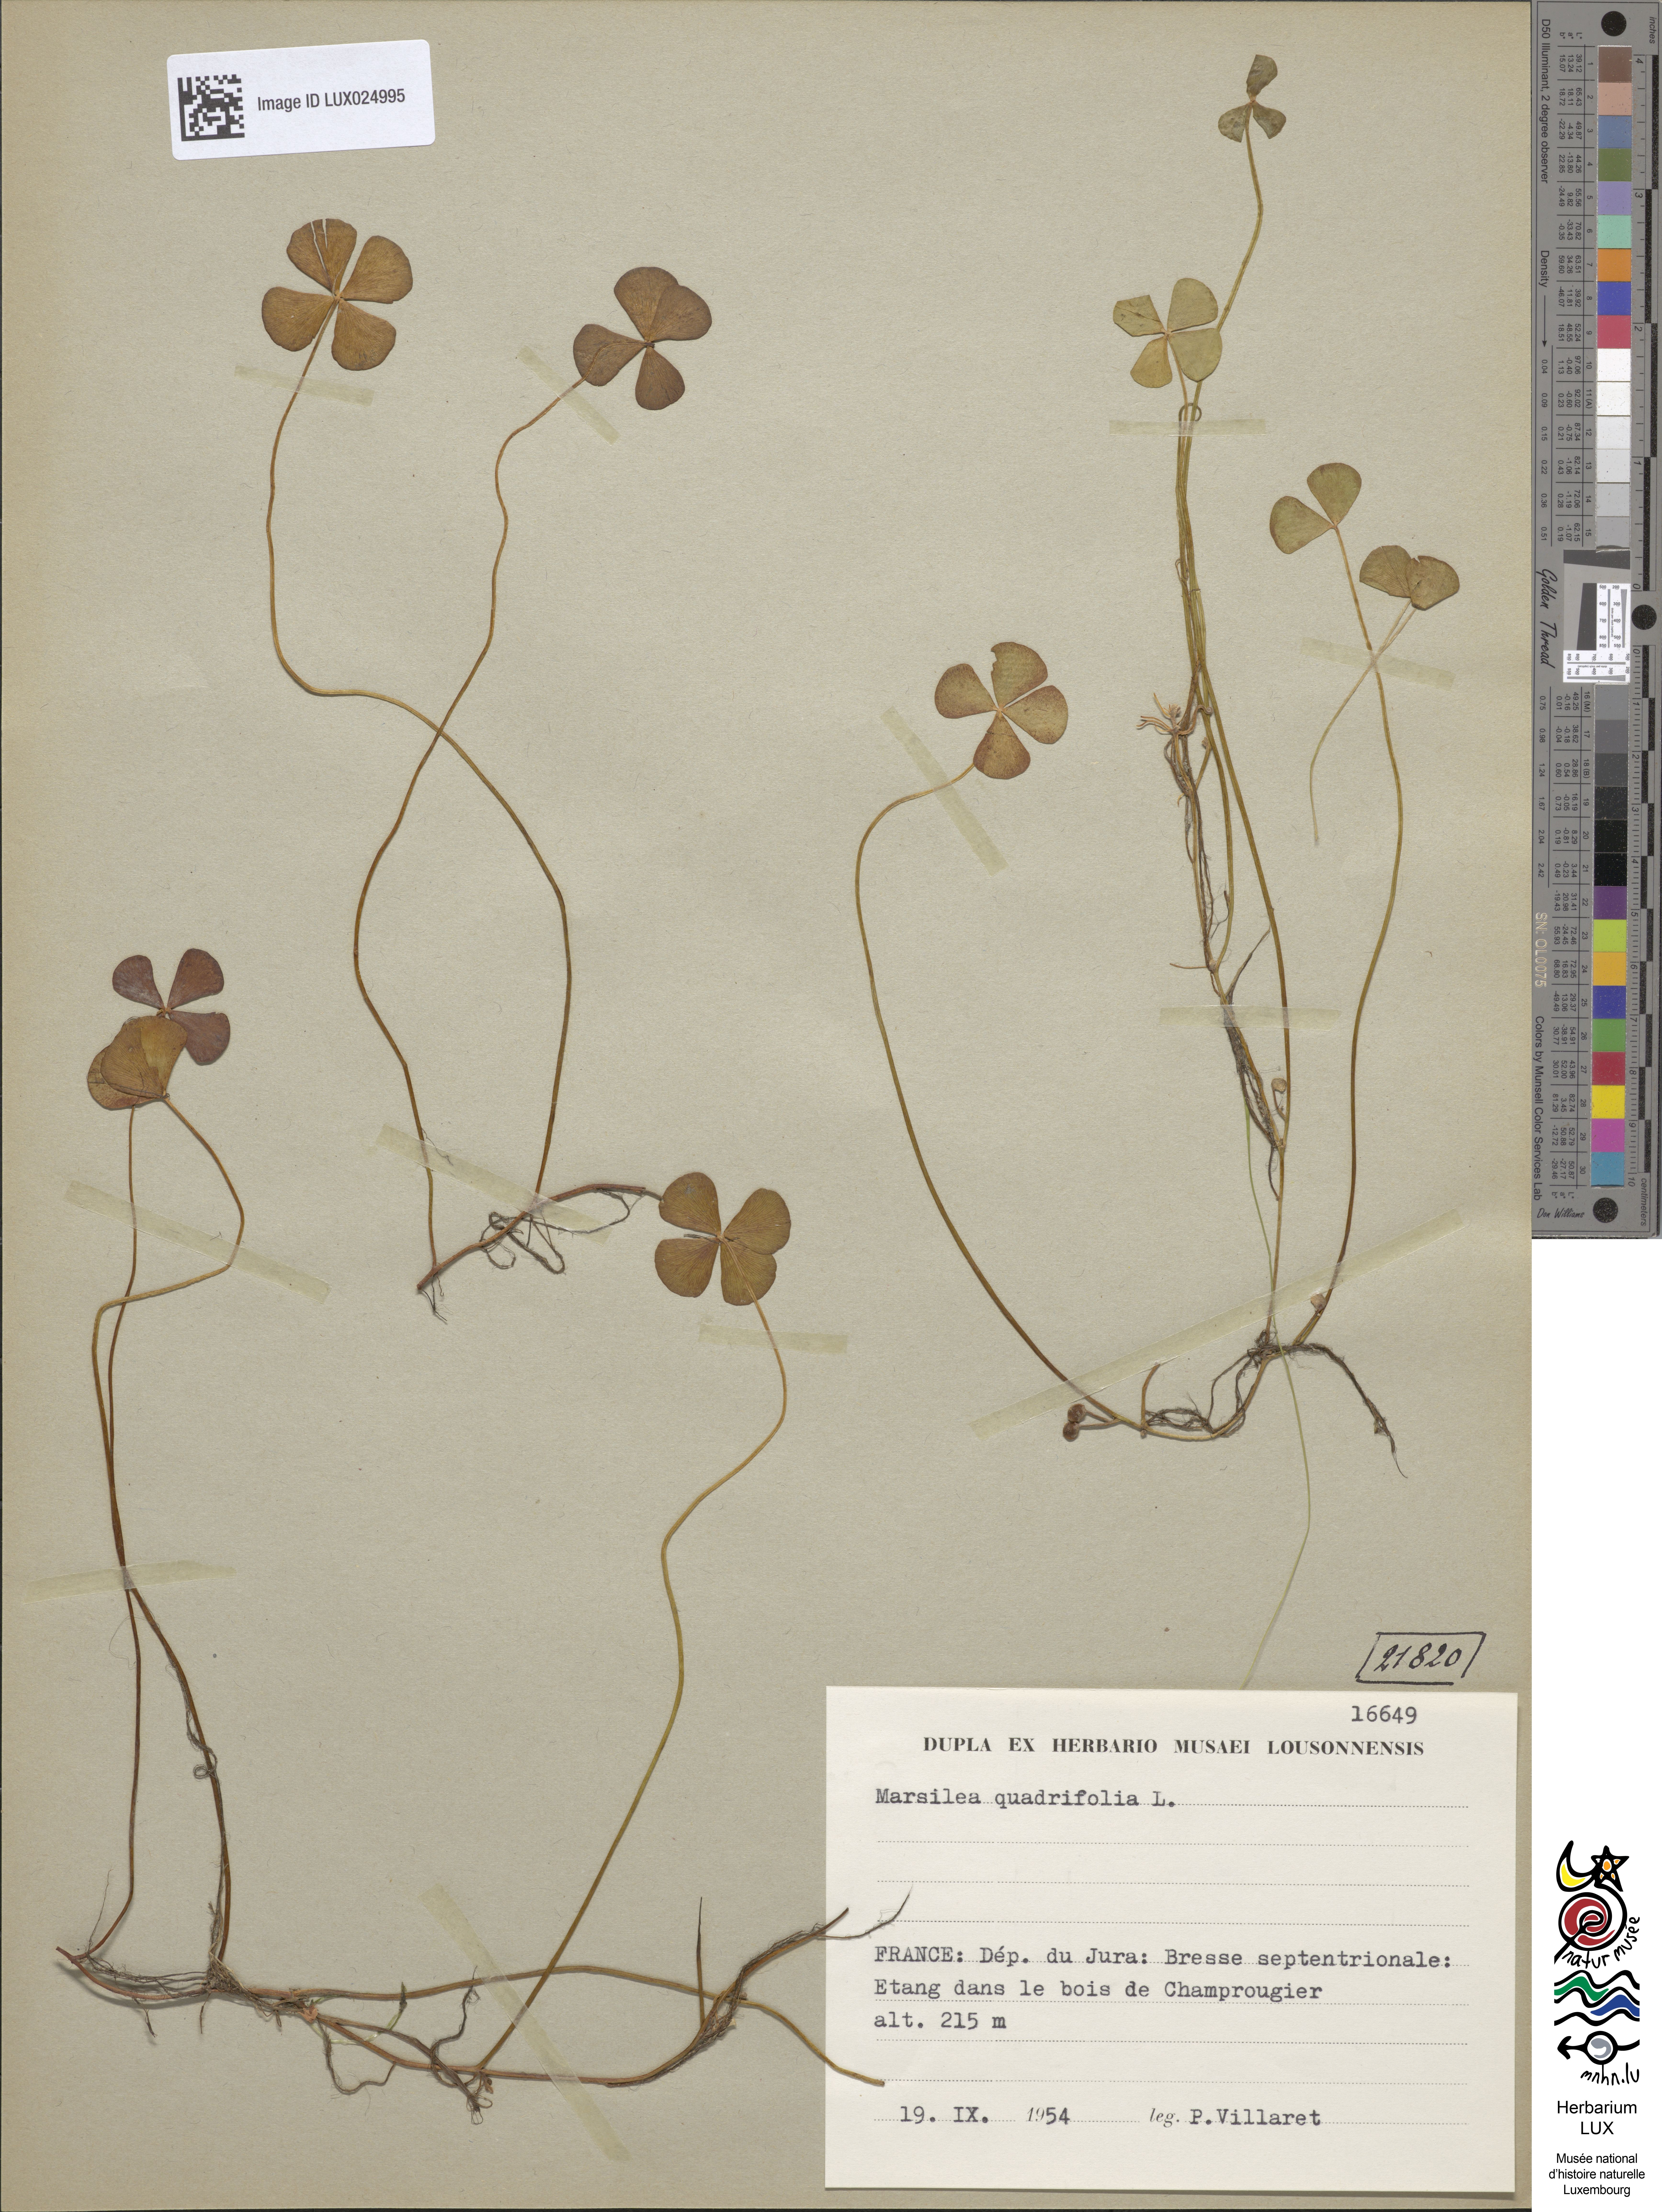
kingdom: Plantae
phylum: Tracheophyta
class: Polypodiopsida
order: Salviniales
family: Marsileaceae
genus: Marsilea
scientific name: Marsilea quadrifolia
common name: Water shamrock
